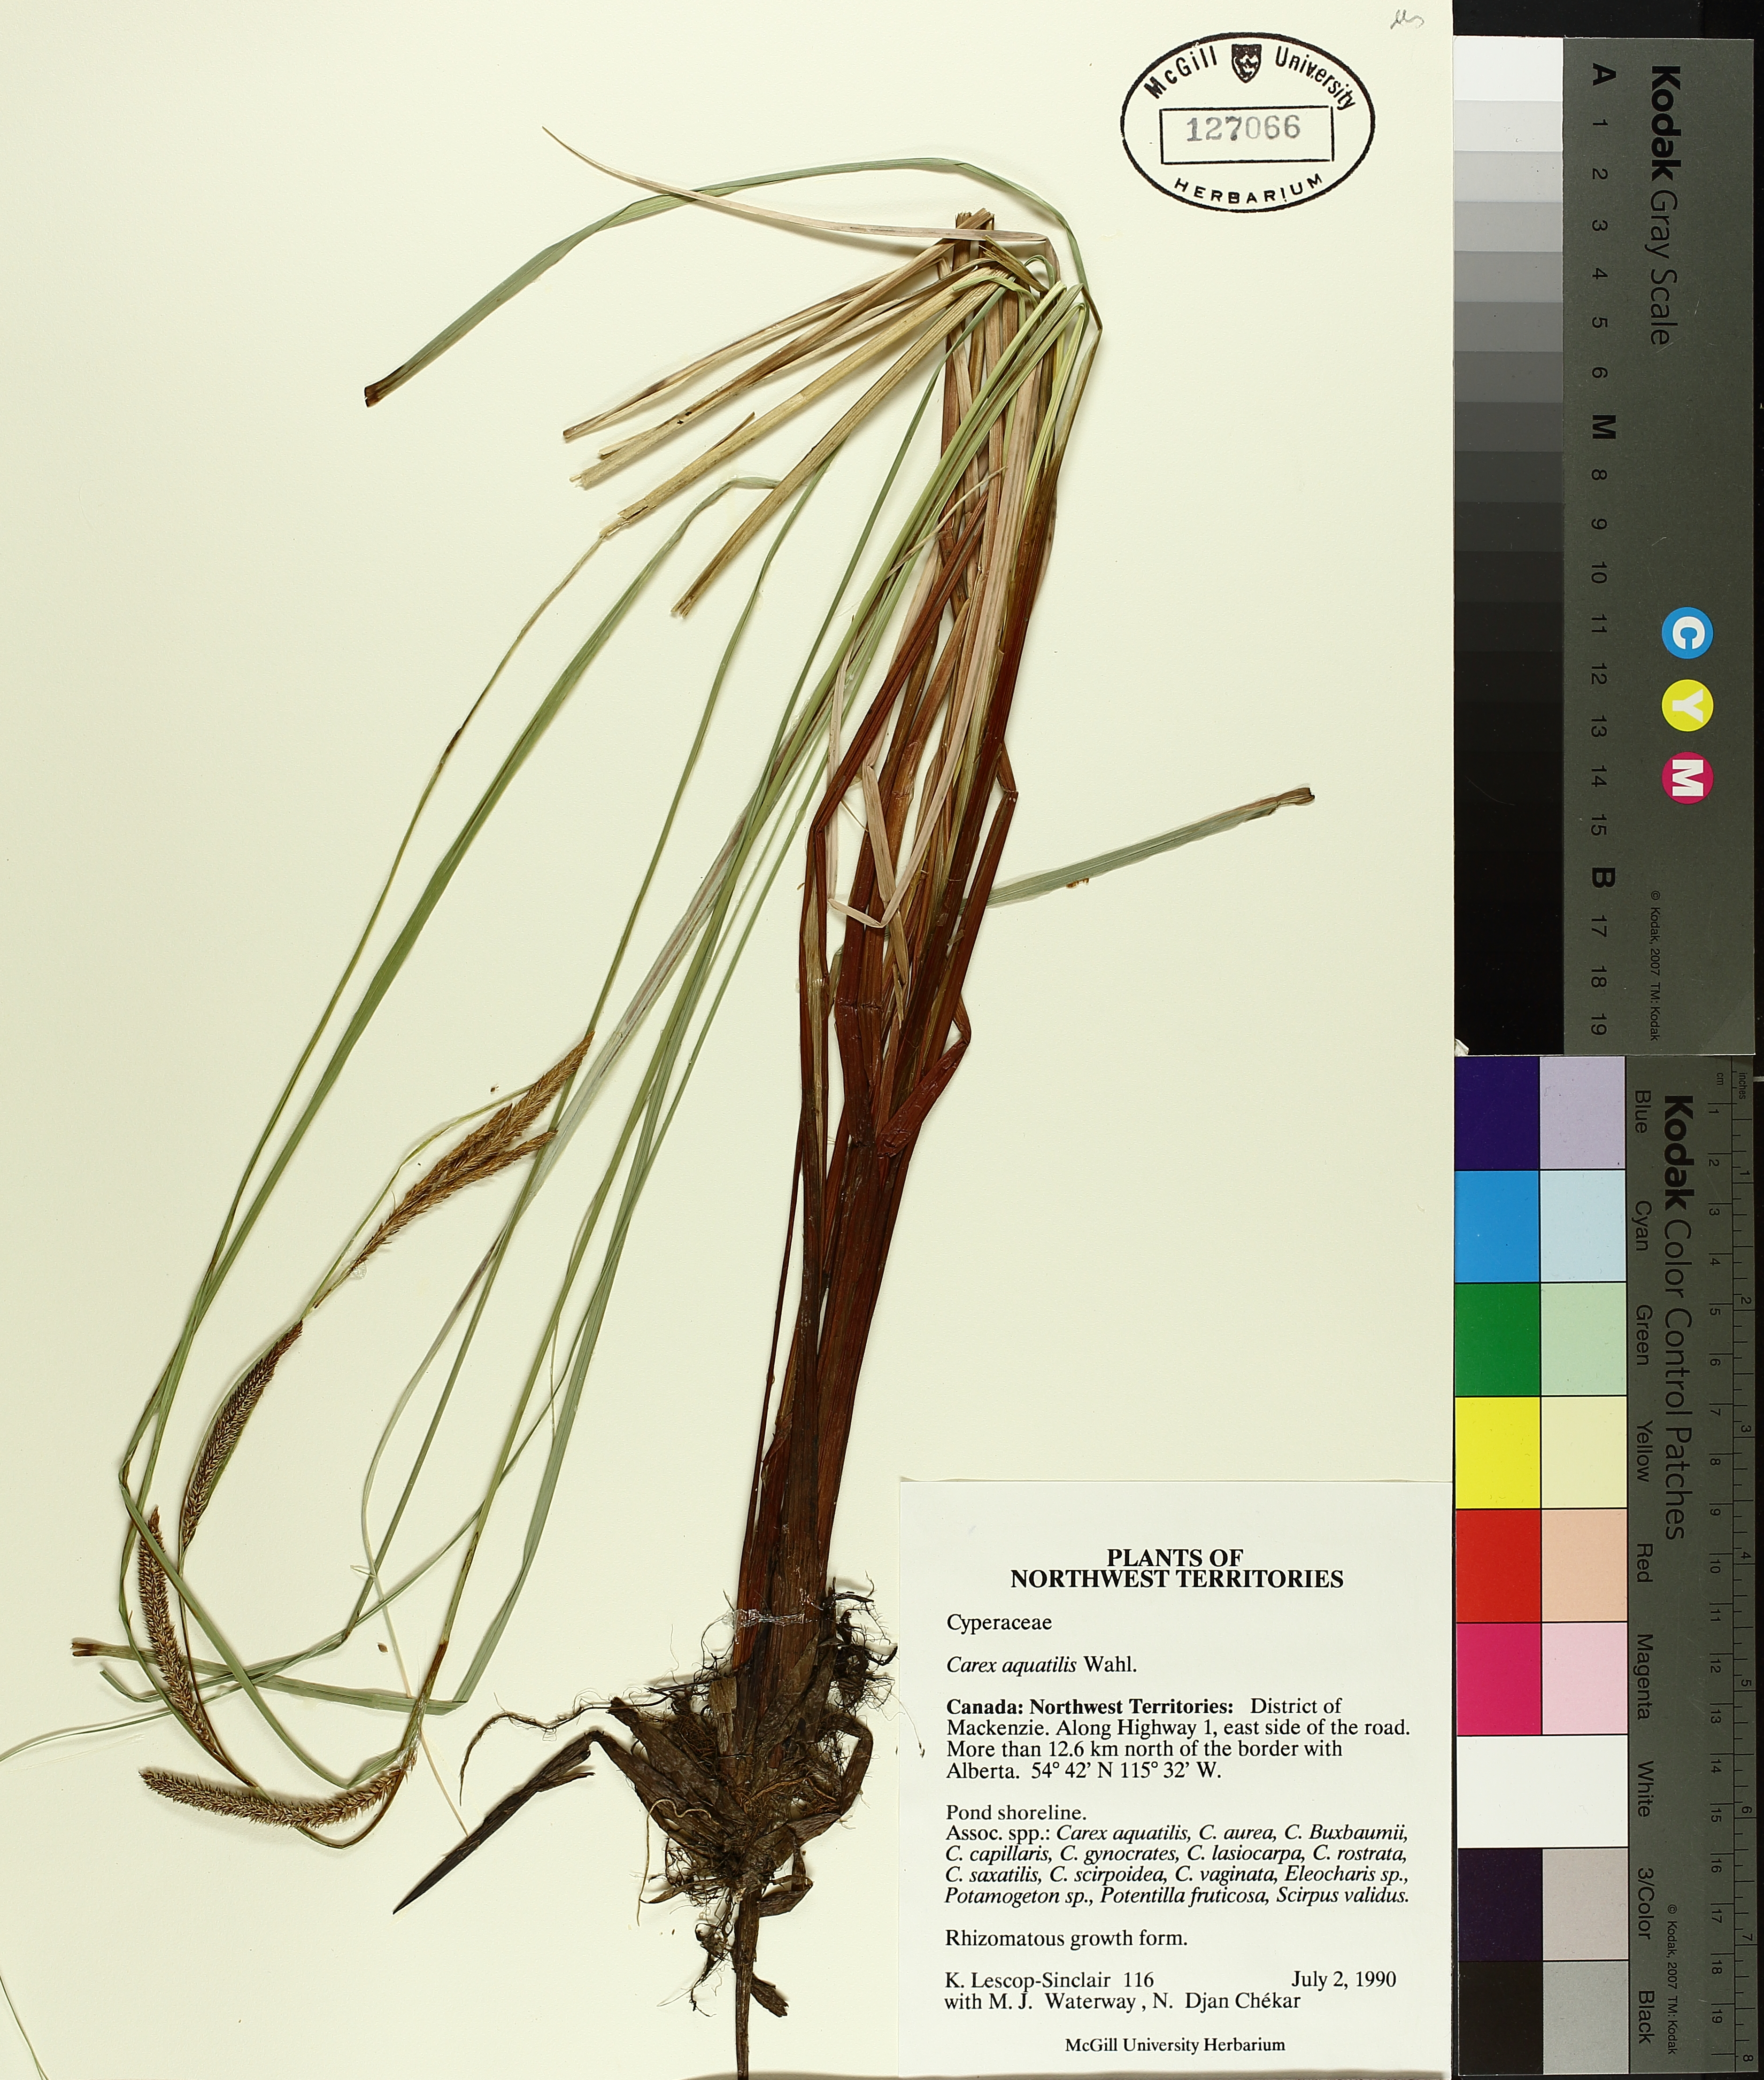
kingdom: Plantae
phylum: Tracheophyta
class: Liliopsida
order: Poales
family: Cyperaceae
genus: Carex
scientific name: Carex aquatilis
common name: Water sedge
